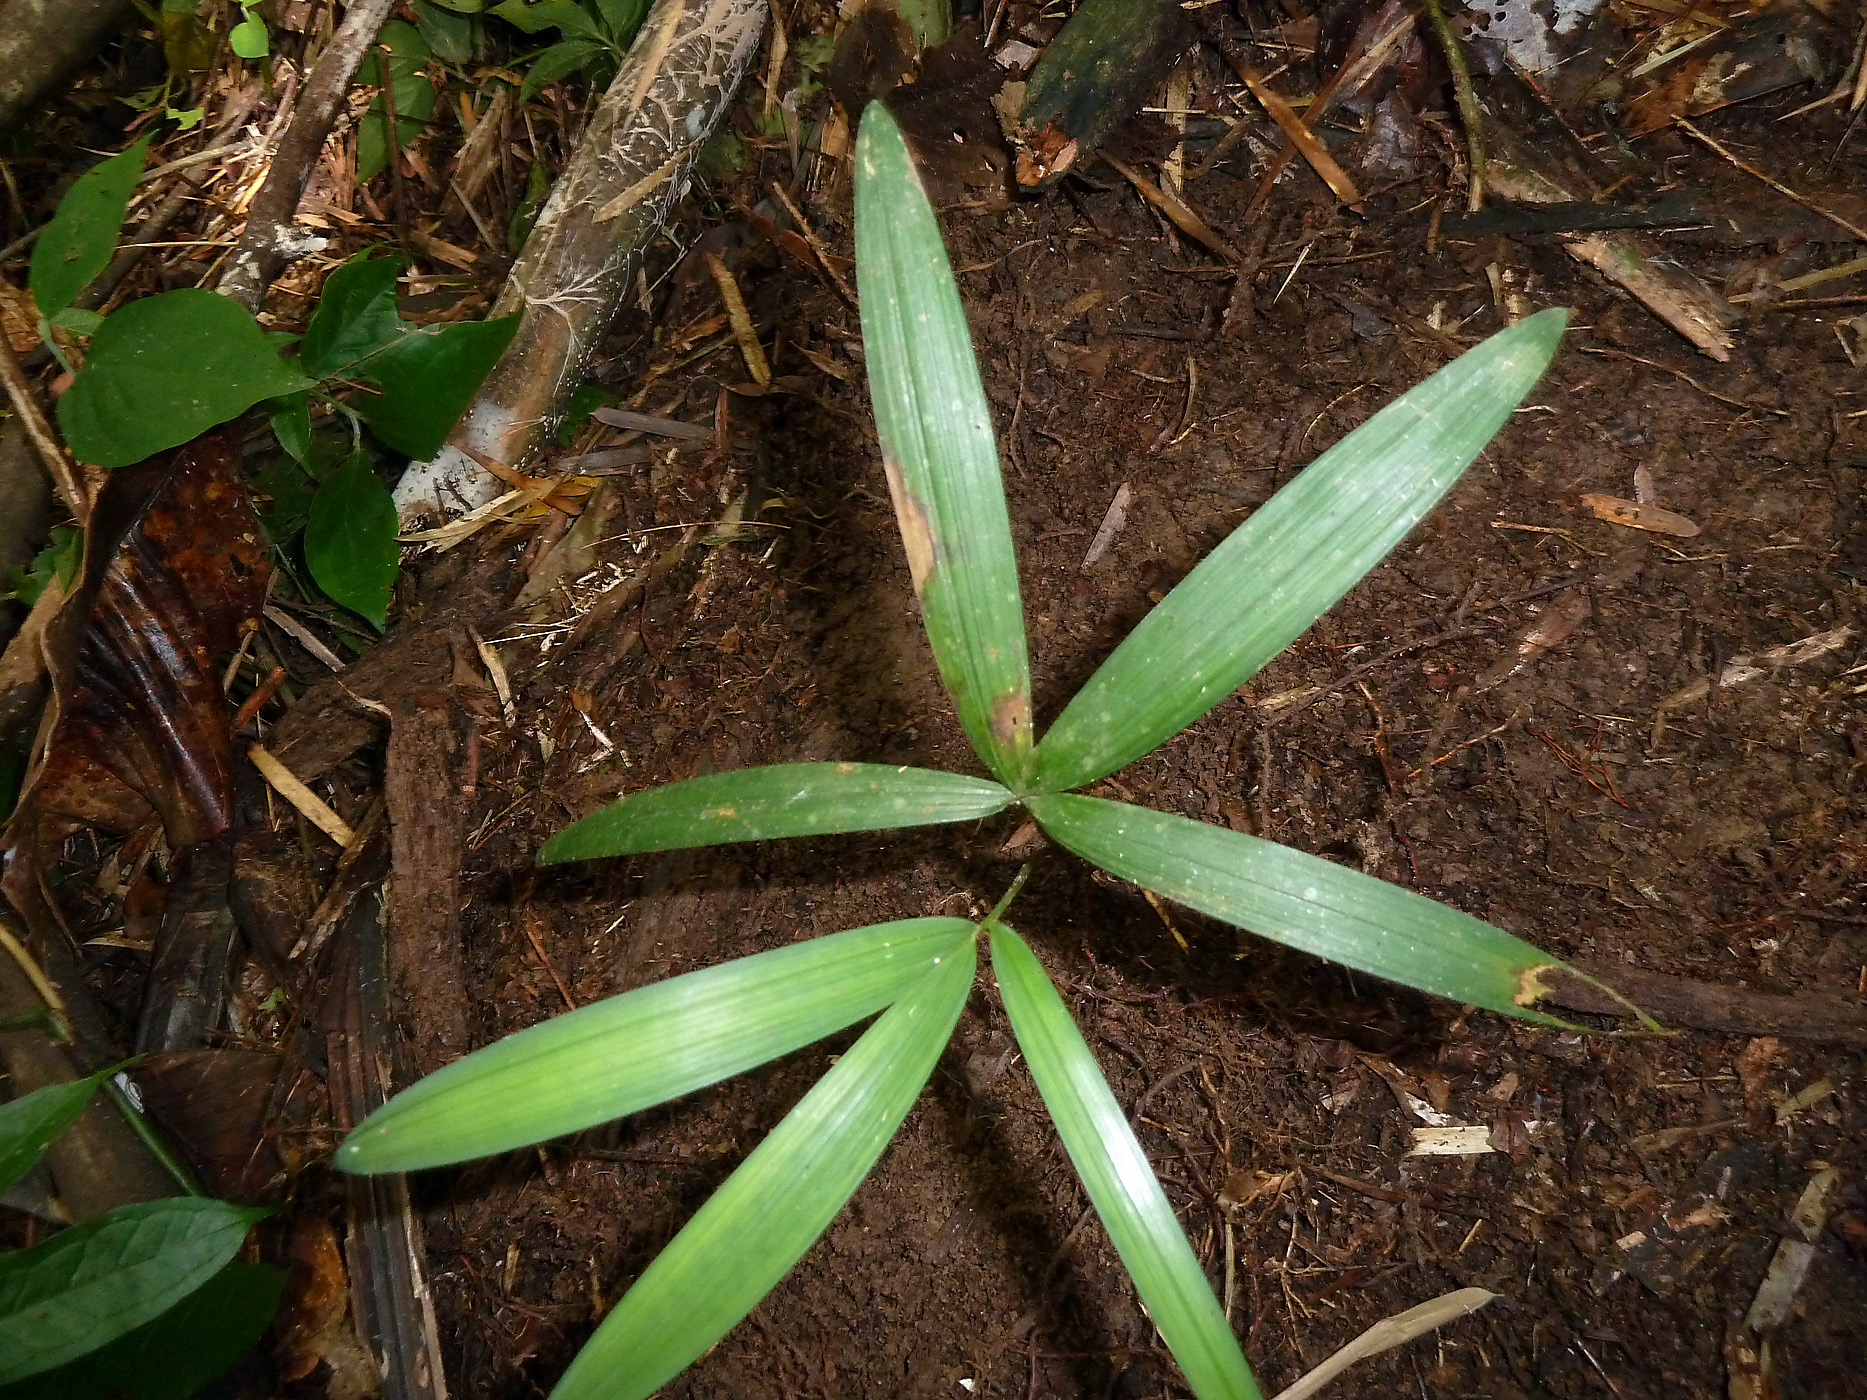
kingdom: Plantae
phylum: Tracheophyta
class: Liliopsida
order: Arecales
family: Arecaceae
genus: Oenocarpus
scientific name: Oenocarpus mapora
